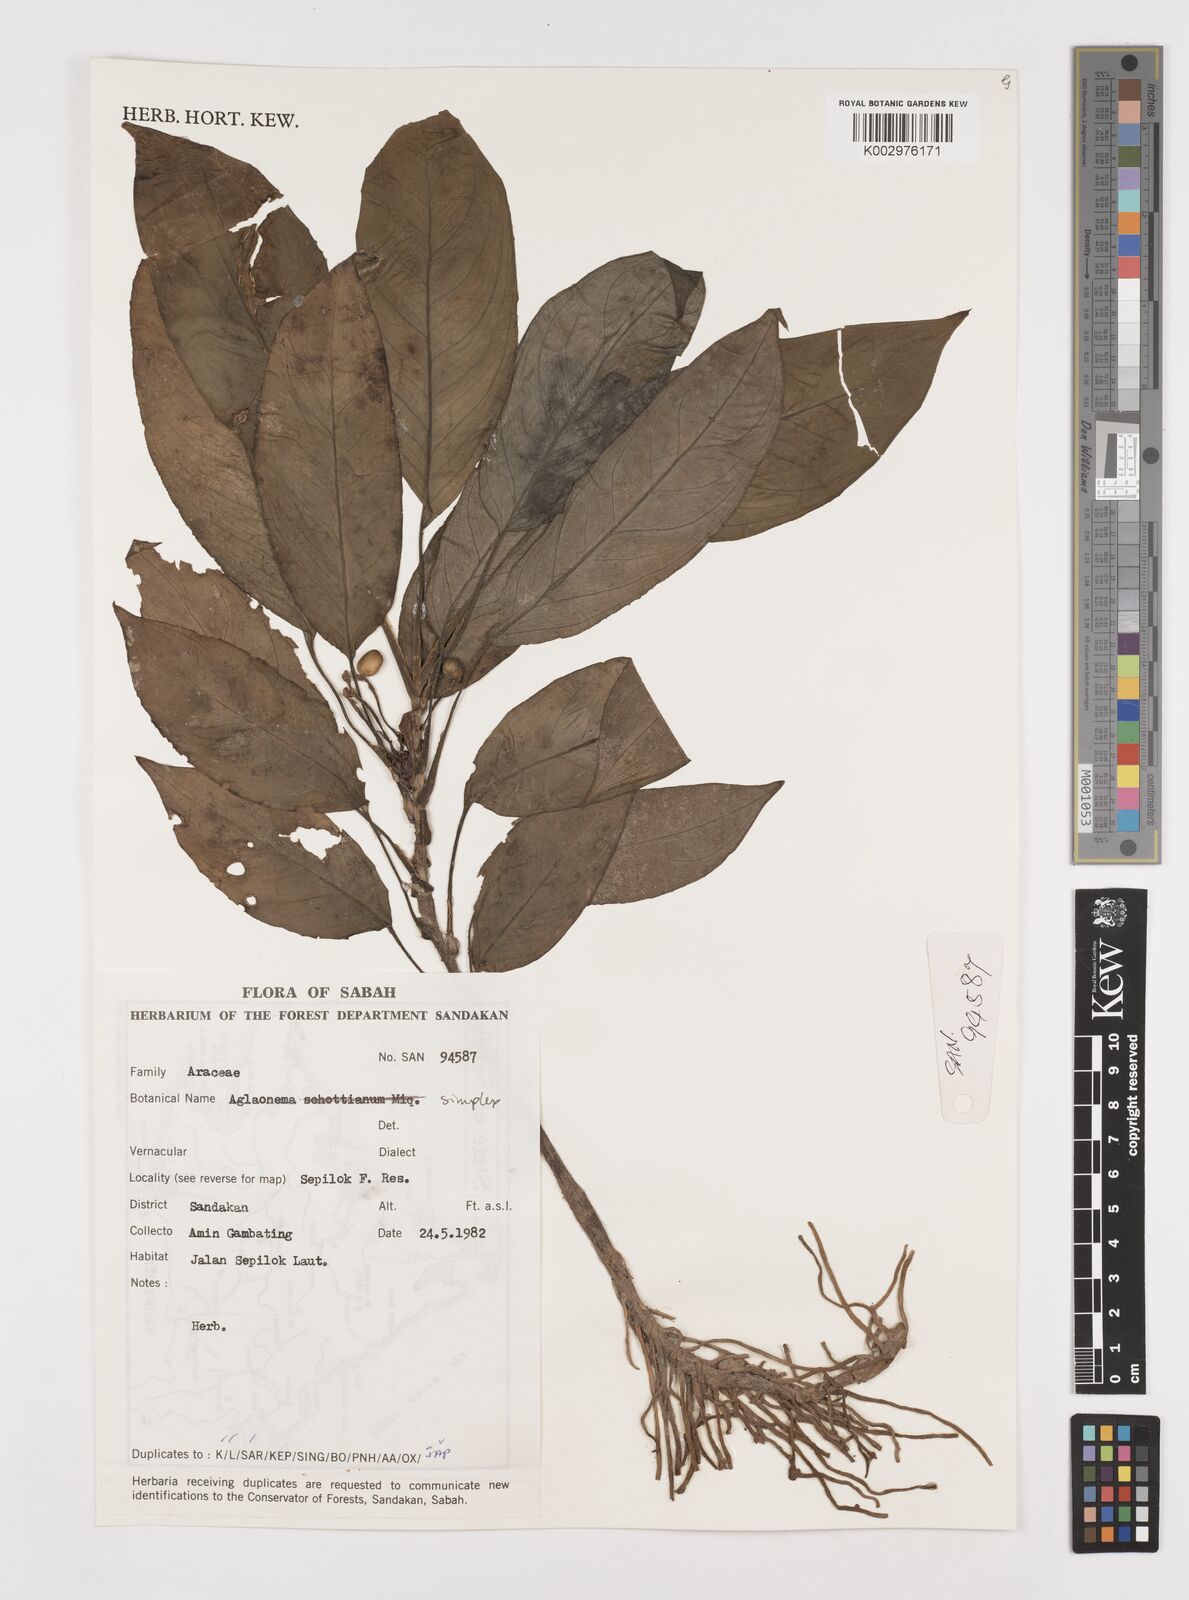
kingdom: Plantae
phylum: Tracheophyta
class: Liliopsida
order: Alismatales
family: Araceae
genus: Aglaonema
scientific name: Aglaonema simplex
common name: Malayan-sword
